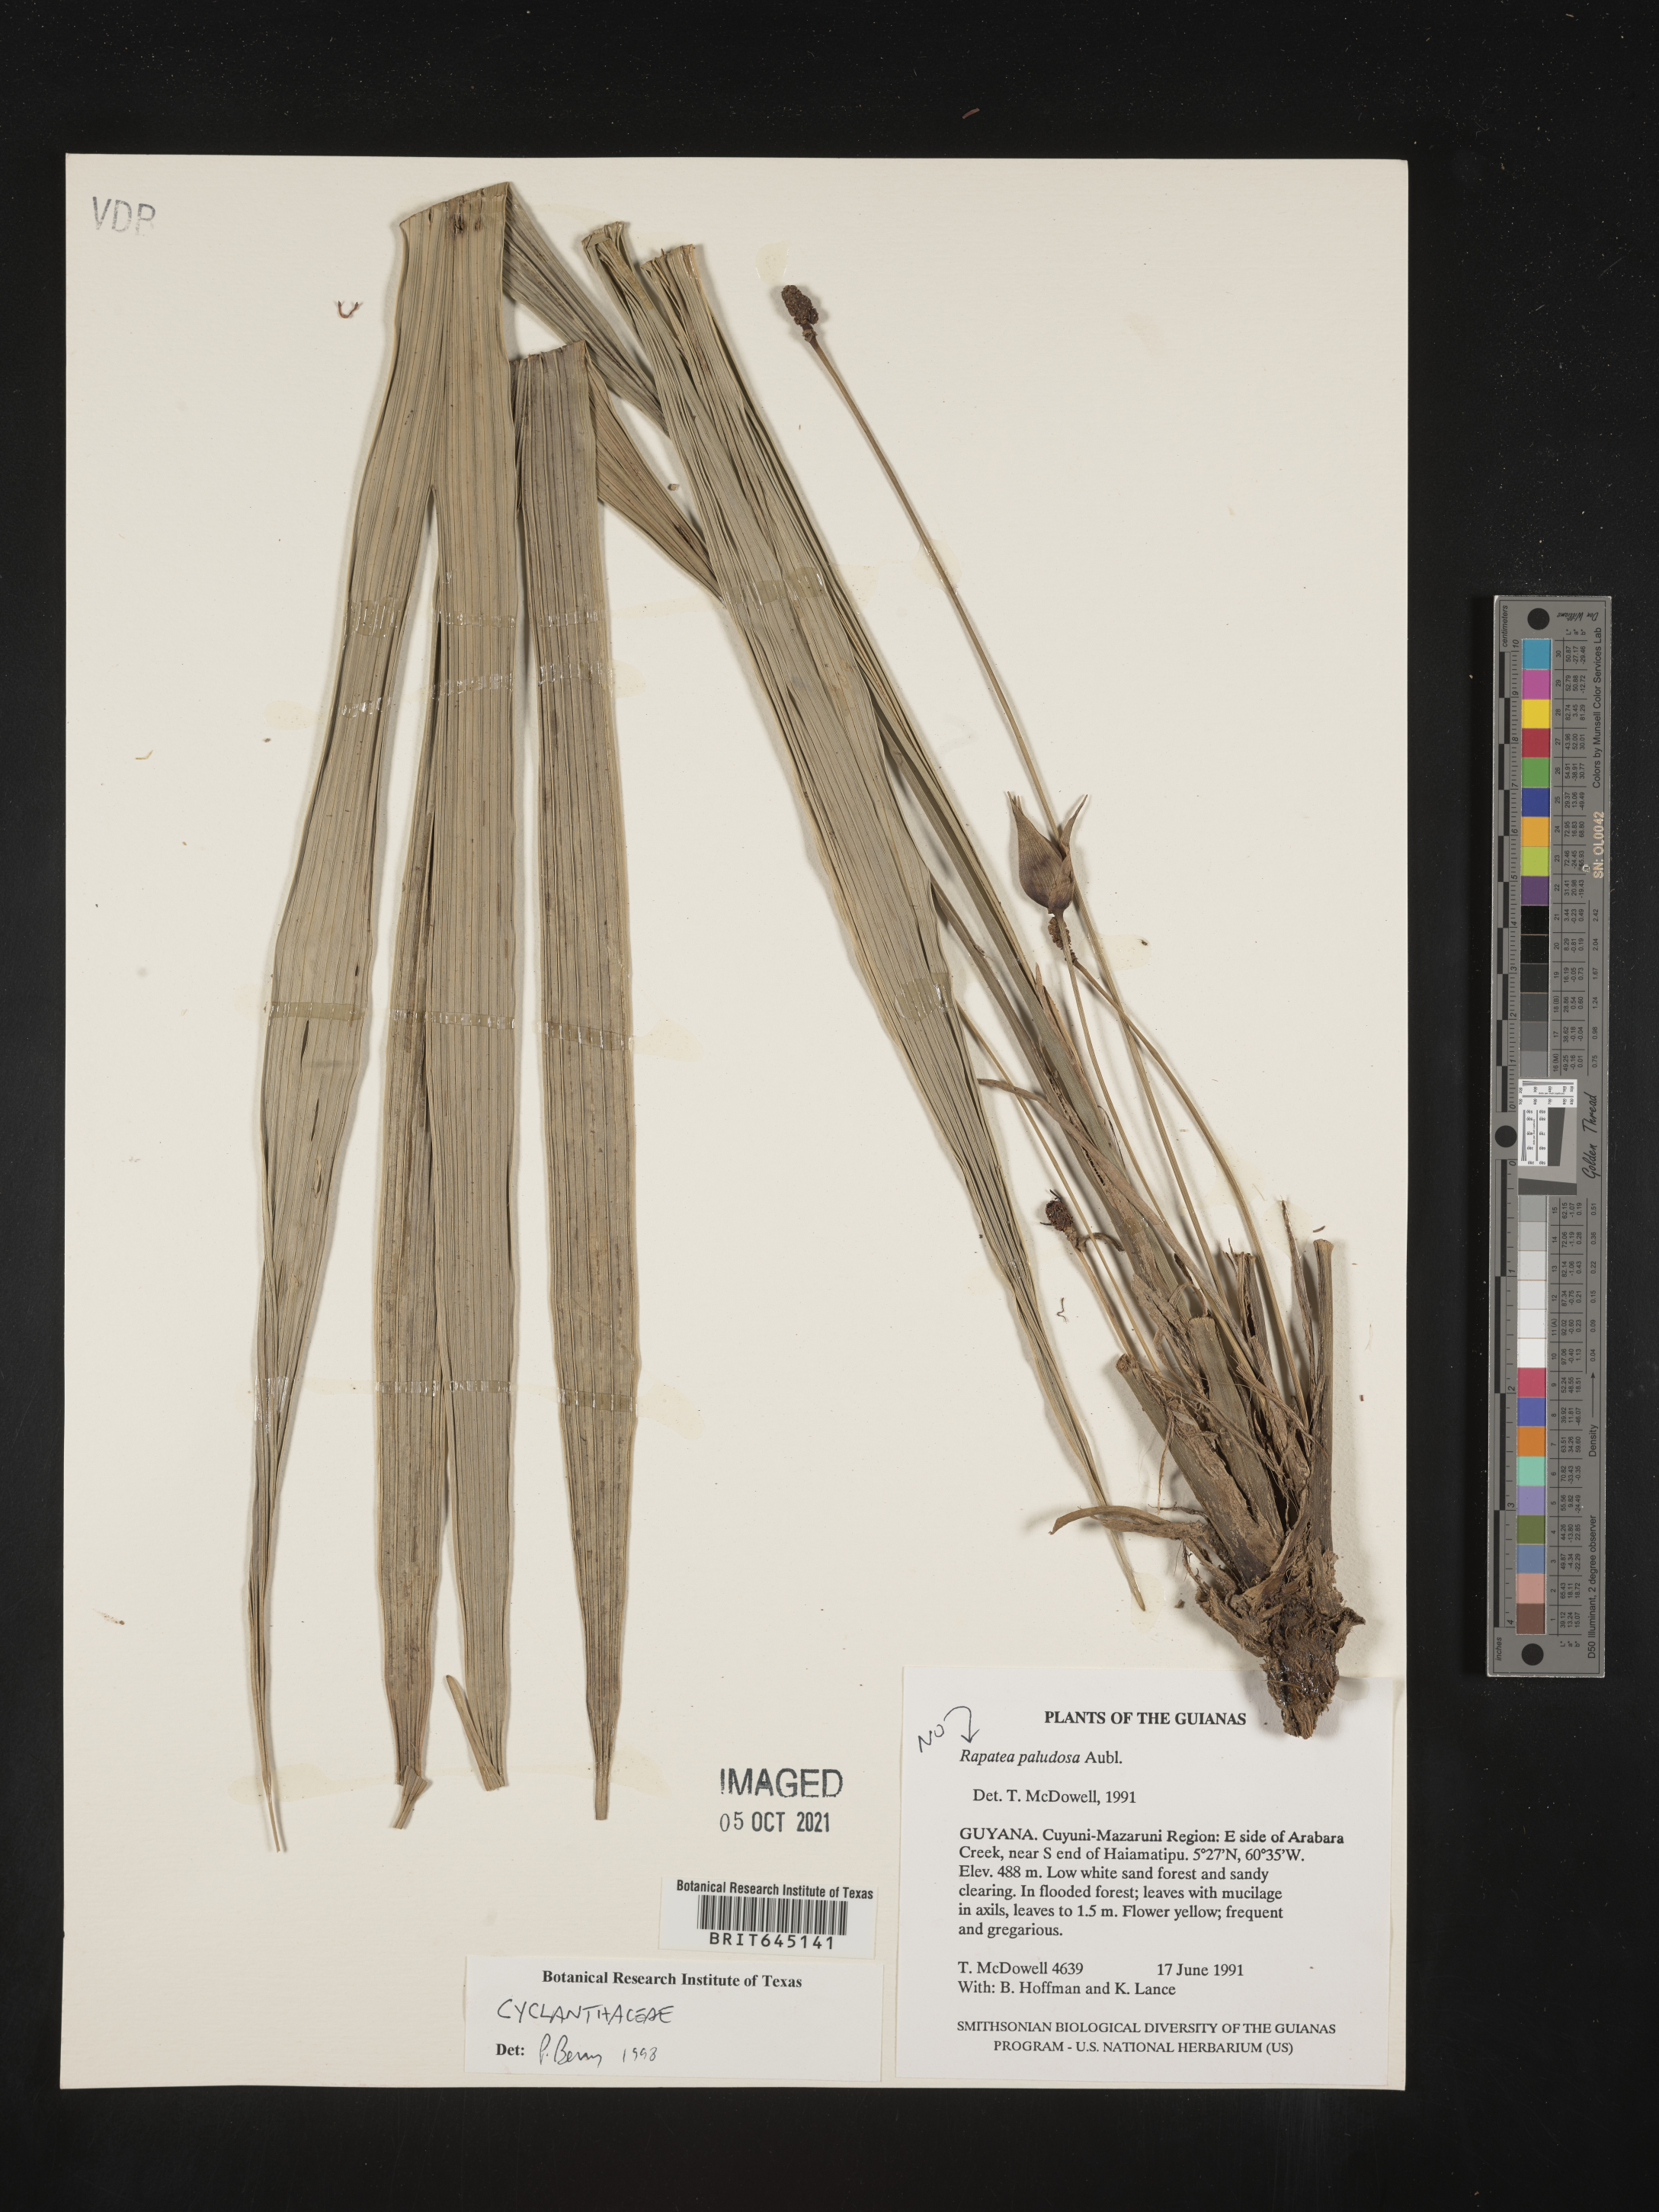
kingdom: Plantae
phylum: Tracheophyta
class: Liliopsida
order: Pandanales
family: Cyclanthaceae
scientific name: Cyclanthaceae
